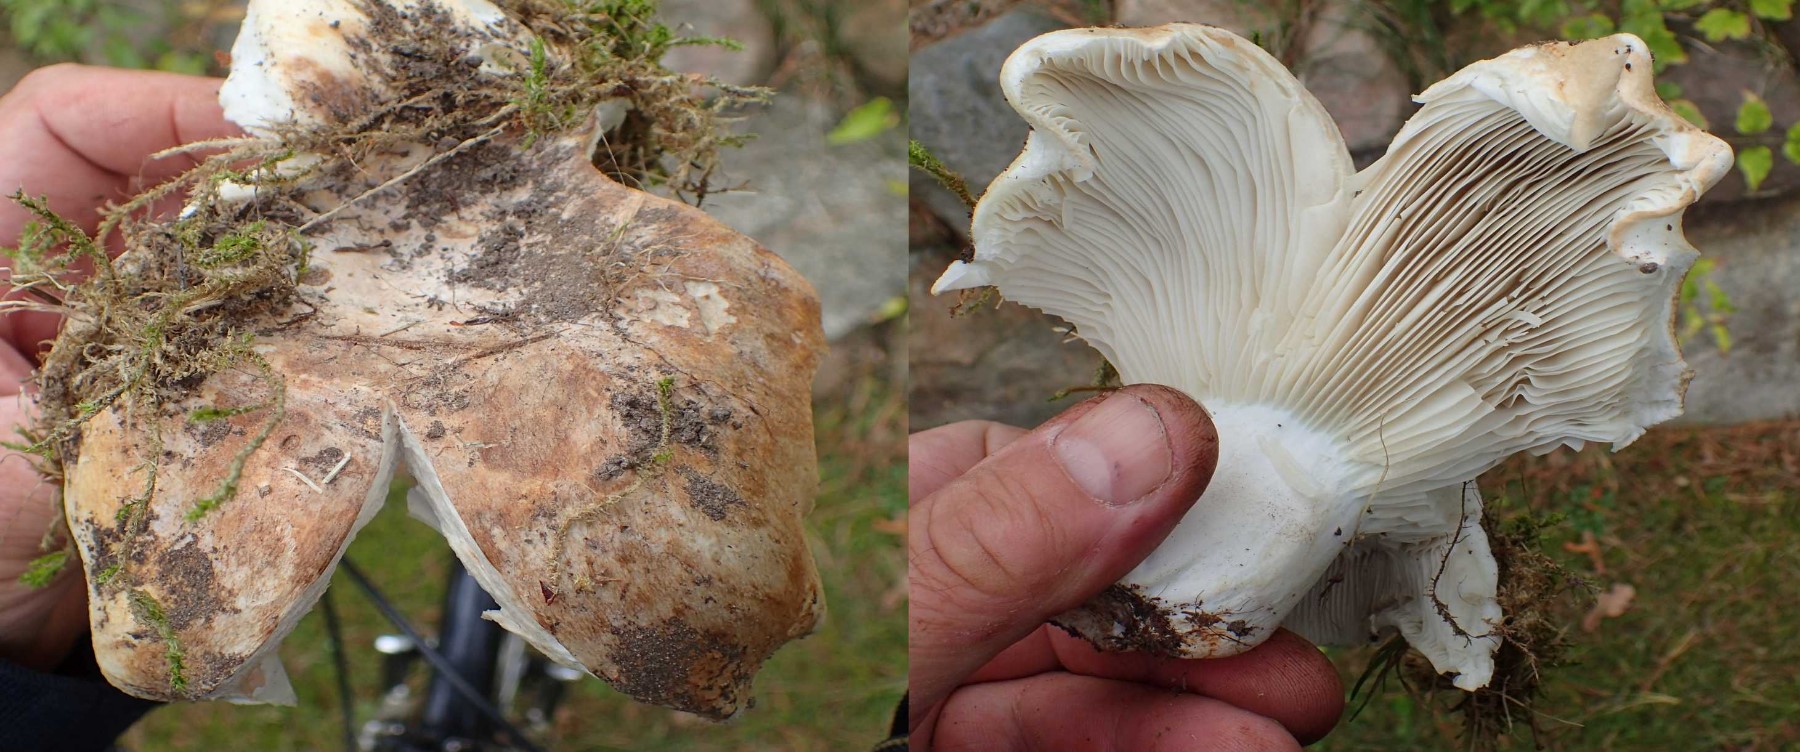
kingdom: Fungi
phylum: Basidiomycota
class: Agaricomycetes
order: Russulales
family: Russulaceae
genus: Russula
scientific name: Russula xerampelina
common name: hummer-skørhat
